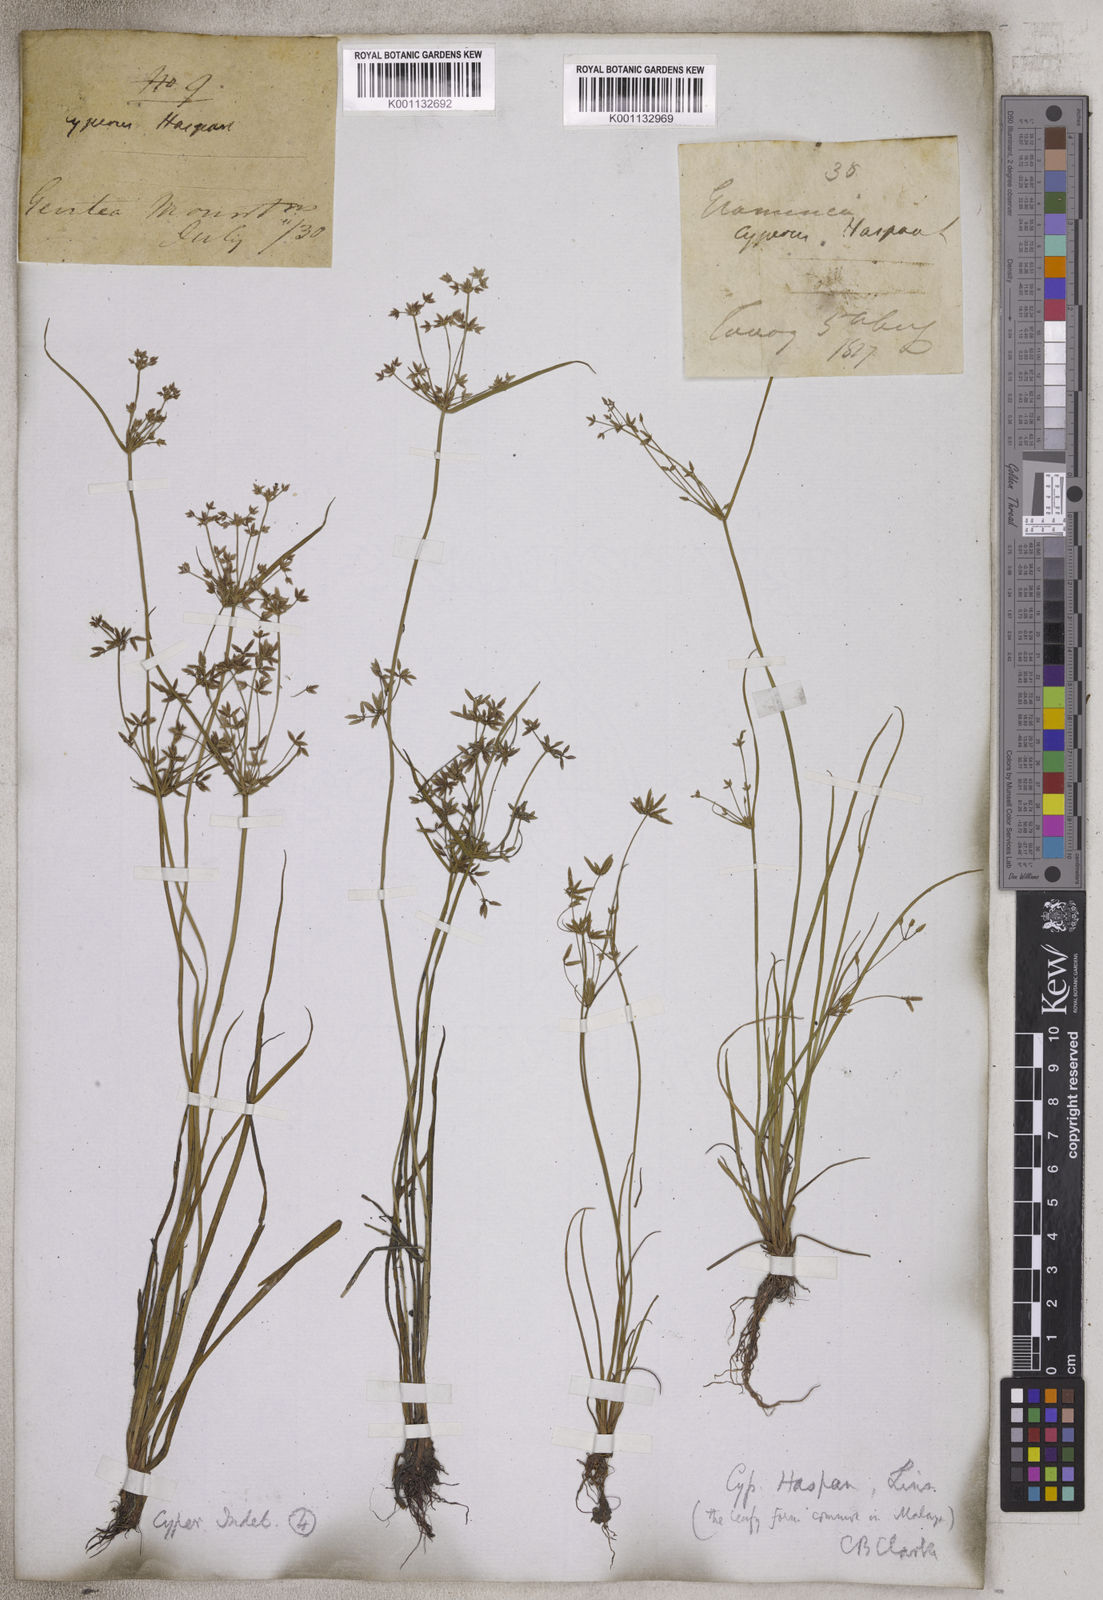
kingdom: Plantae
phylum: Tracheophyta
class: Liliopsida
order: Poales
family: Cyperaceae
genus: Cyperus
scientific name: Cyperus haspan
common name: Haspan flatsedge
